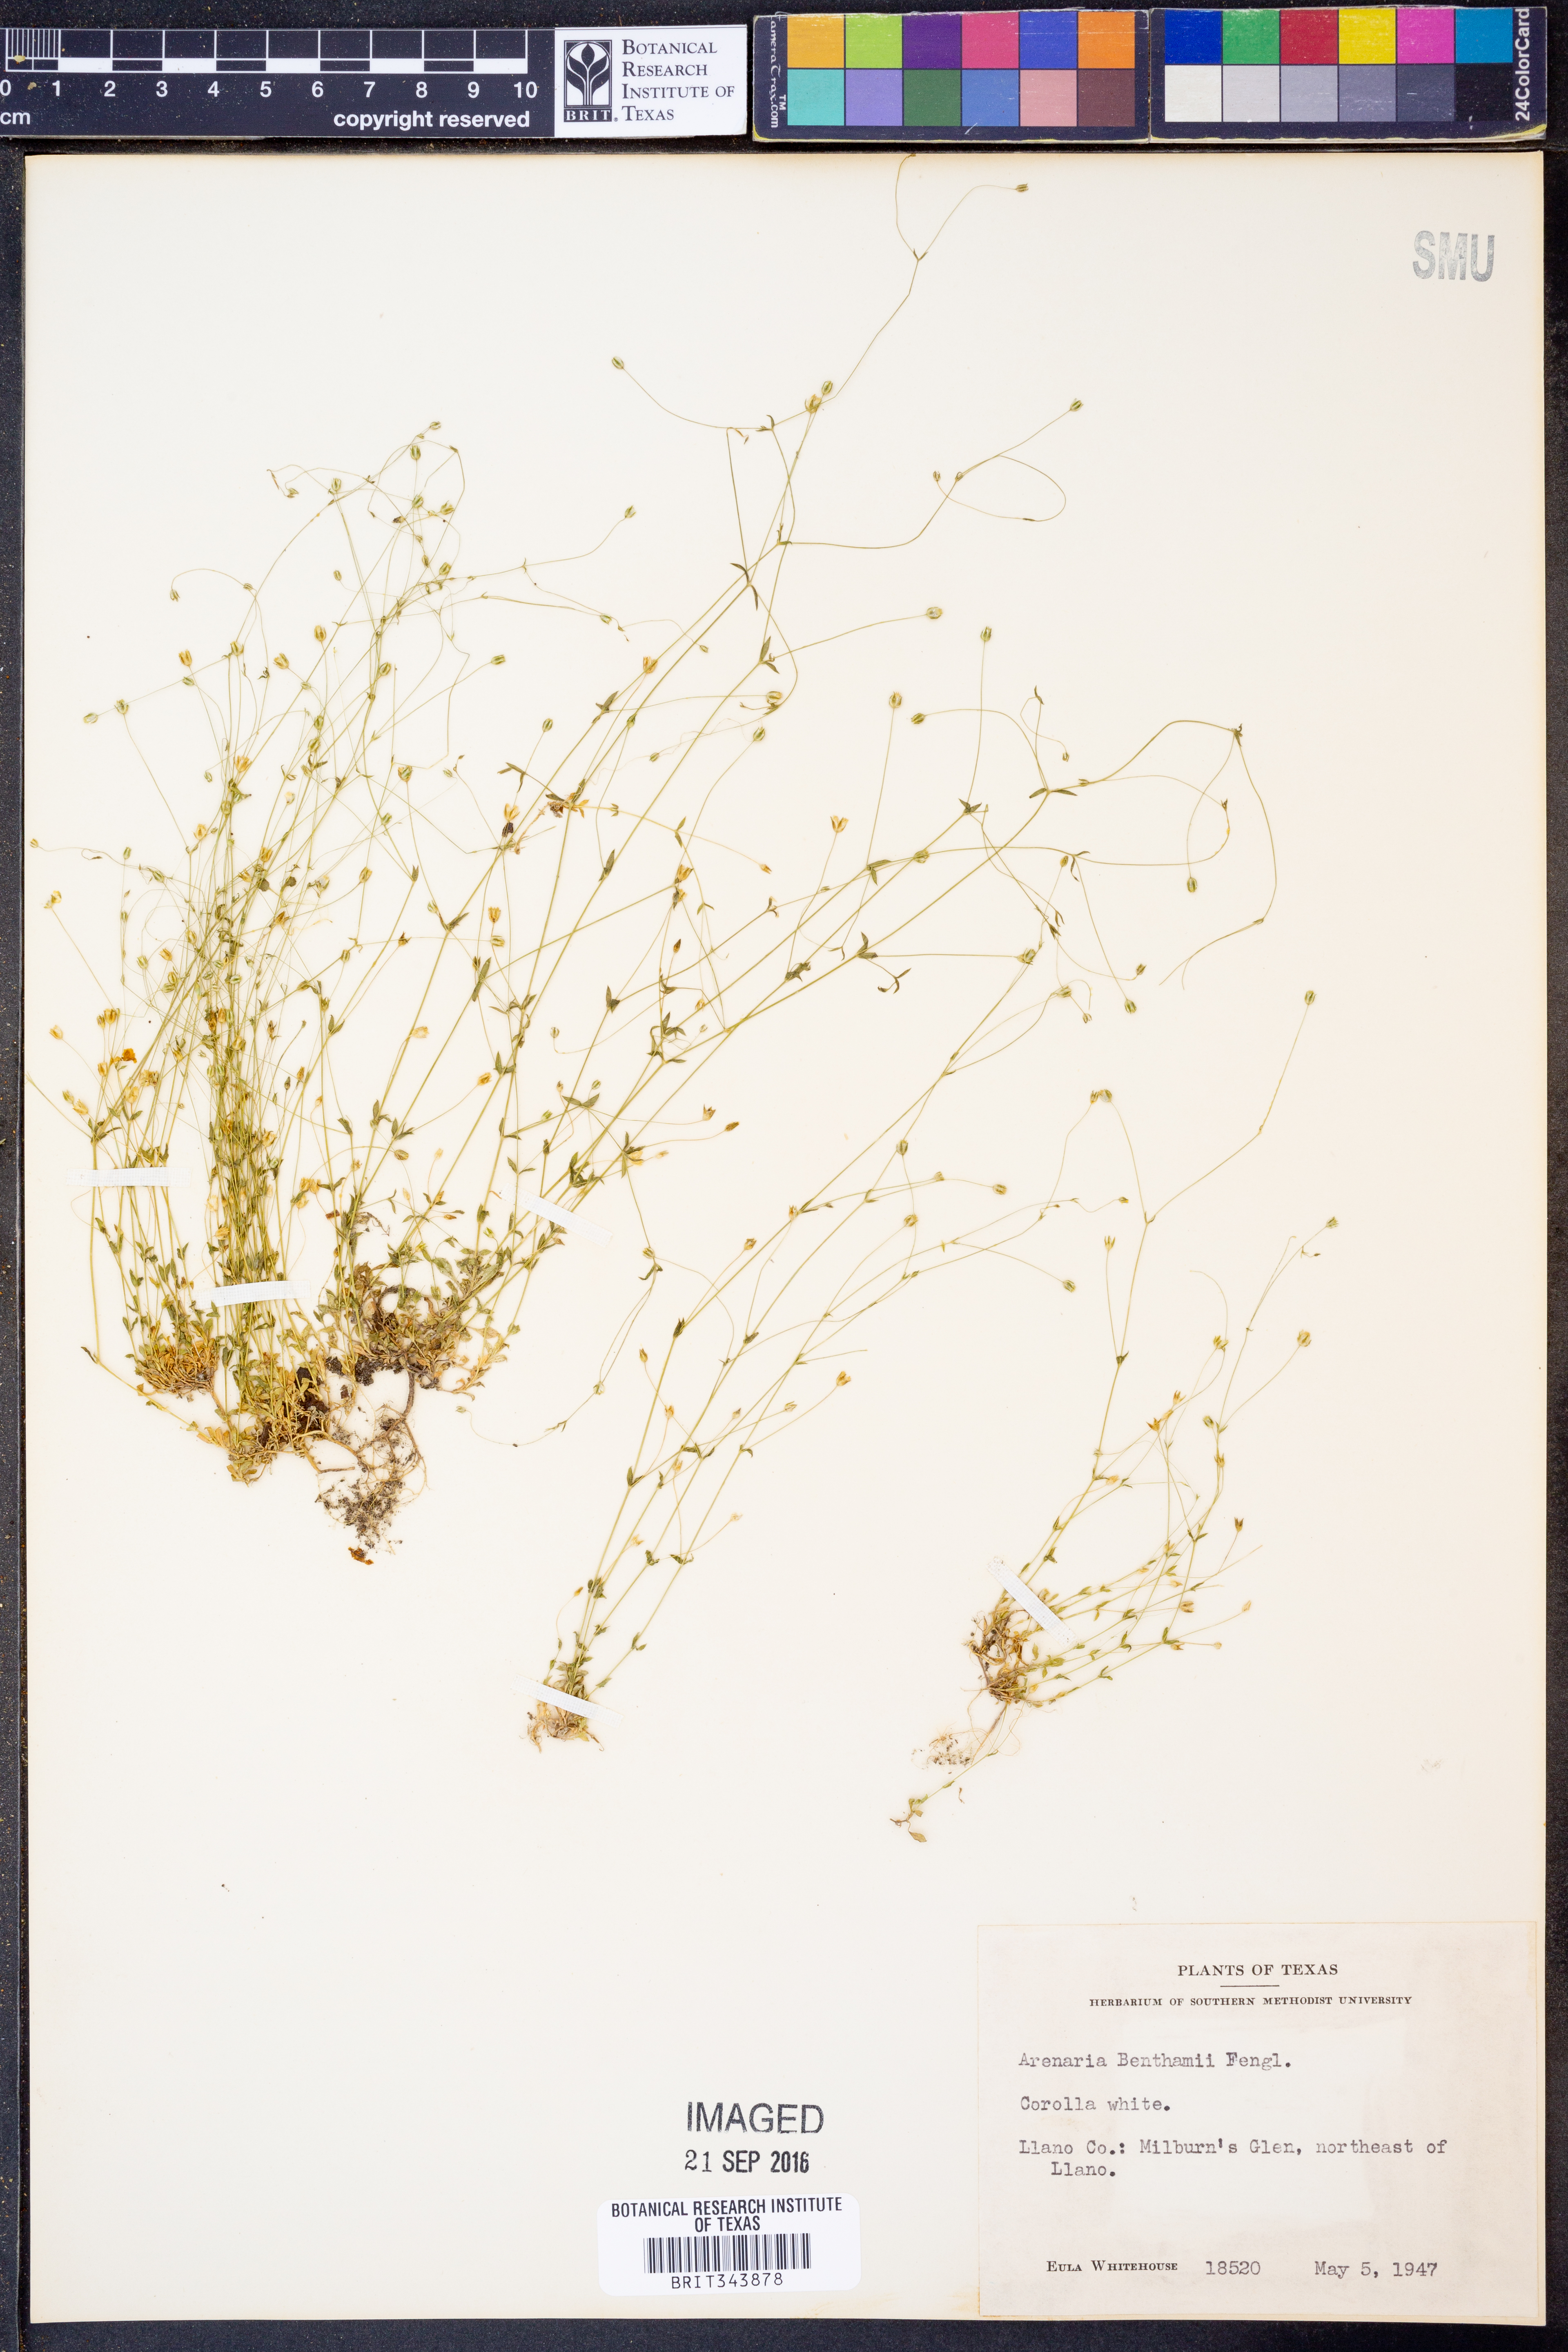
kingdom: Plantae
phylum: Tracheophyta
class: Magnoliopsida
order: Caryophyllales
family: Caryophyllaceae
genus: Arenaria
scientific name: Arenaria benthamii
